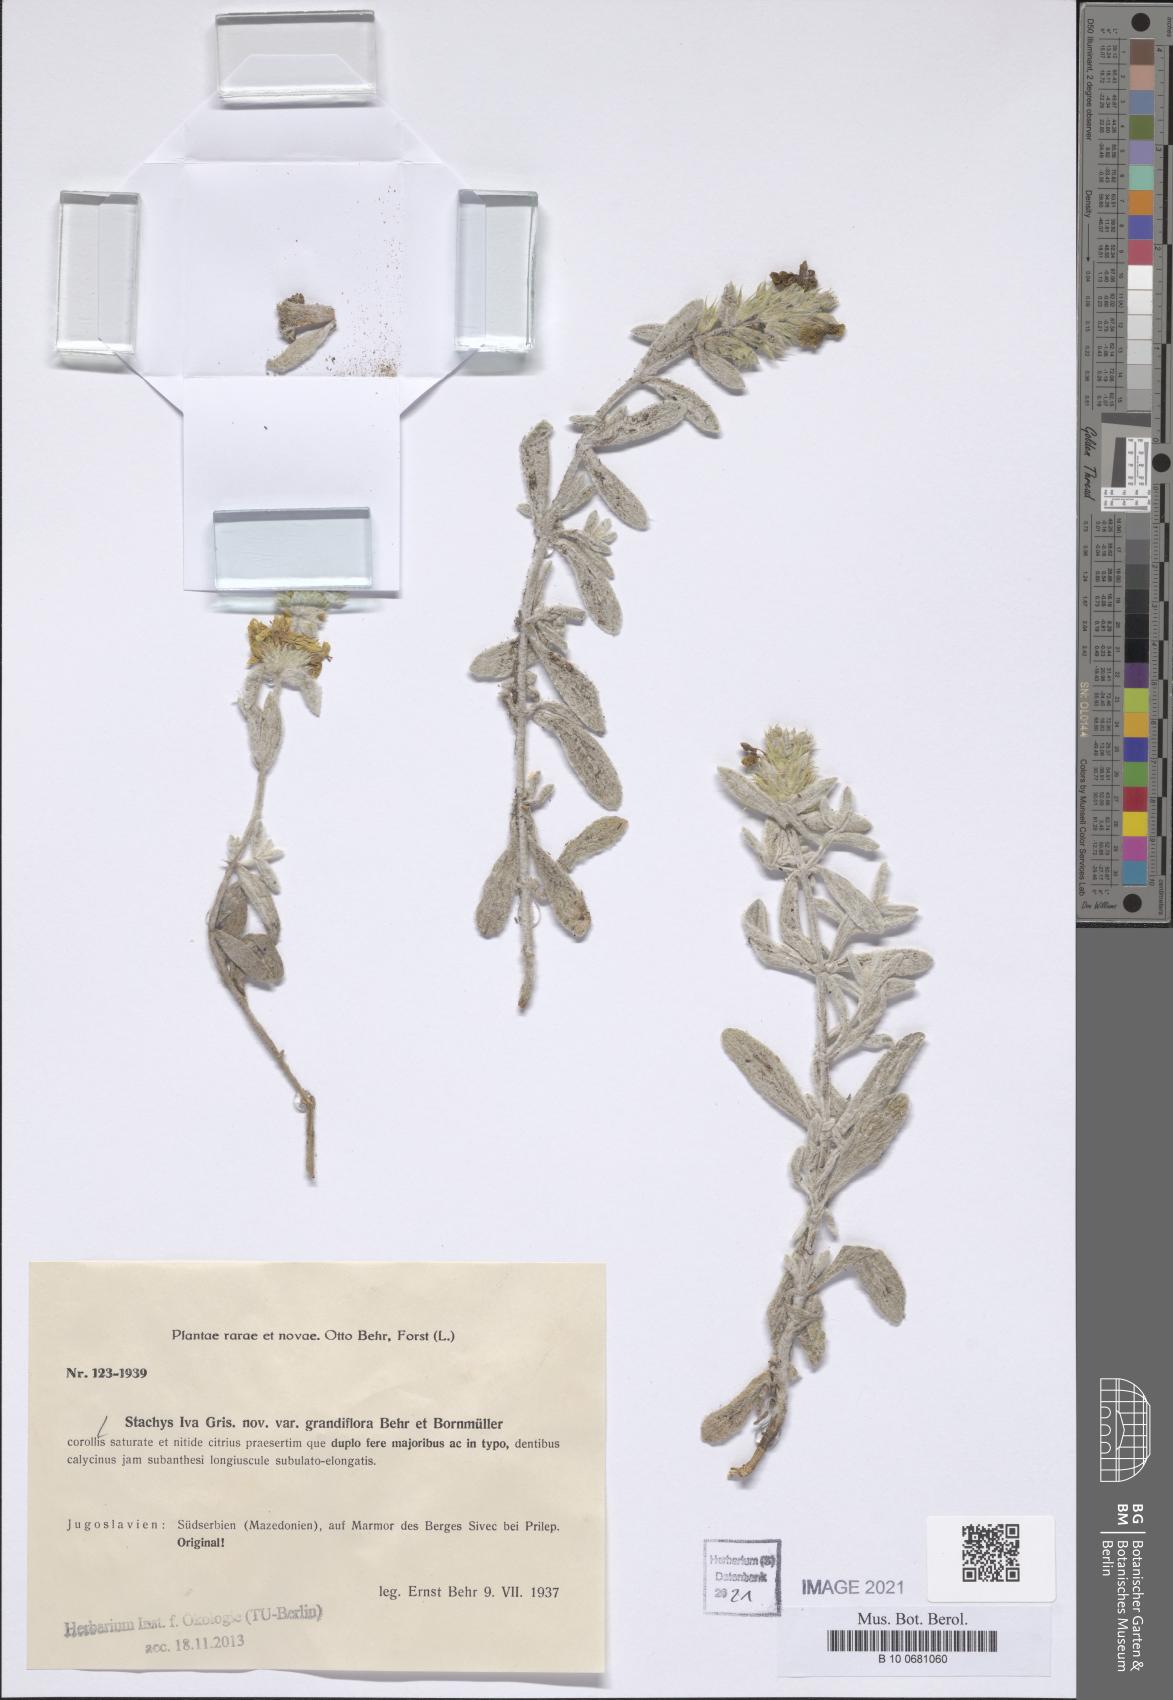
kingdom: Plantae
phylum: Tracheophyta
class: Magnoliopsida
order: Lamiales
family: Lamiaceae
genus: Stachys
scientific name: Stachys iva
